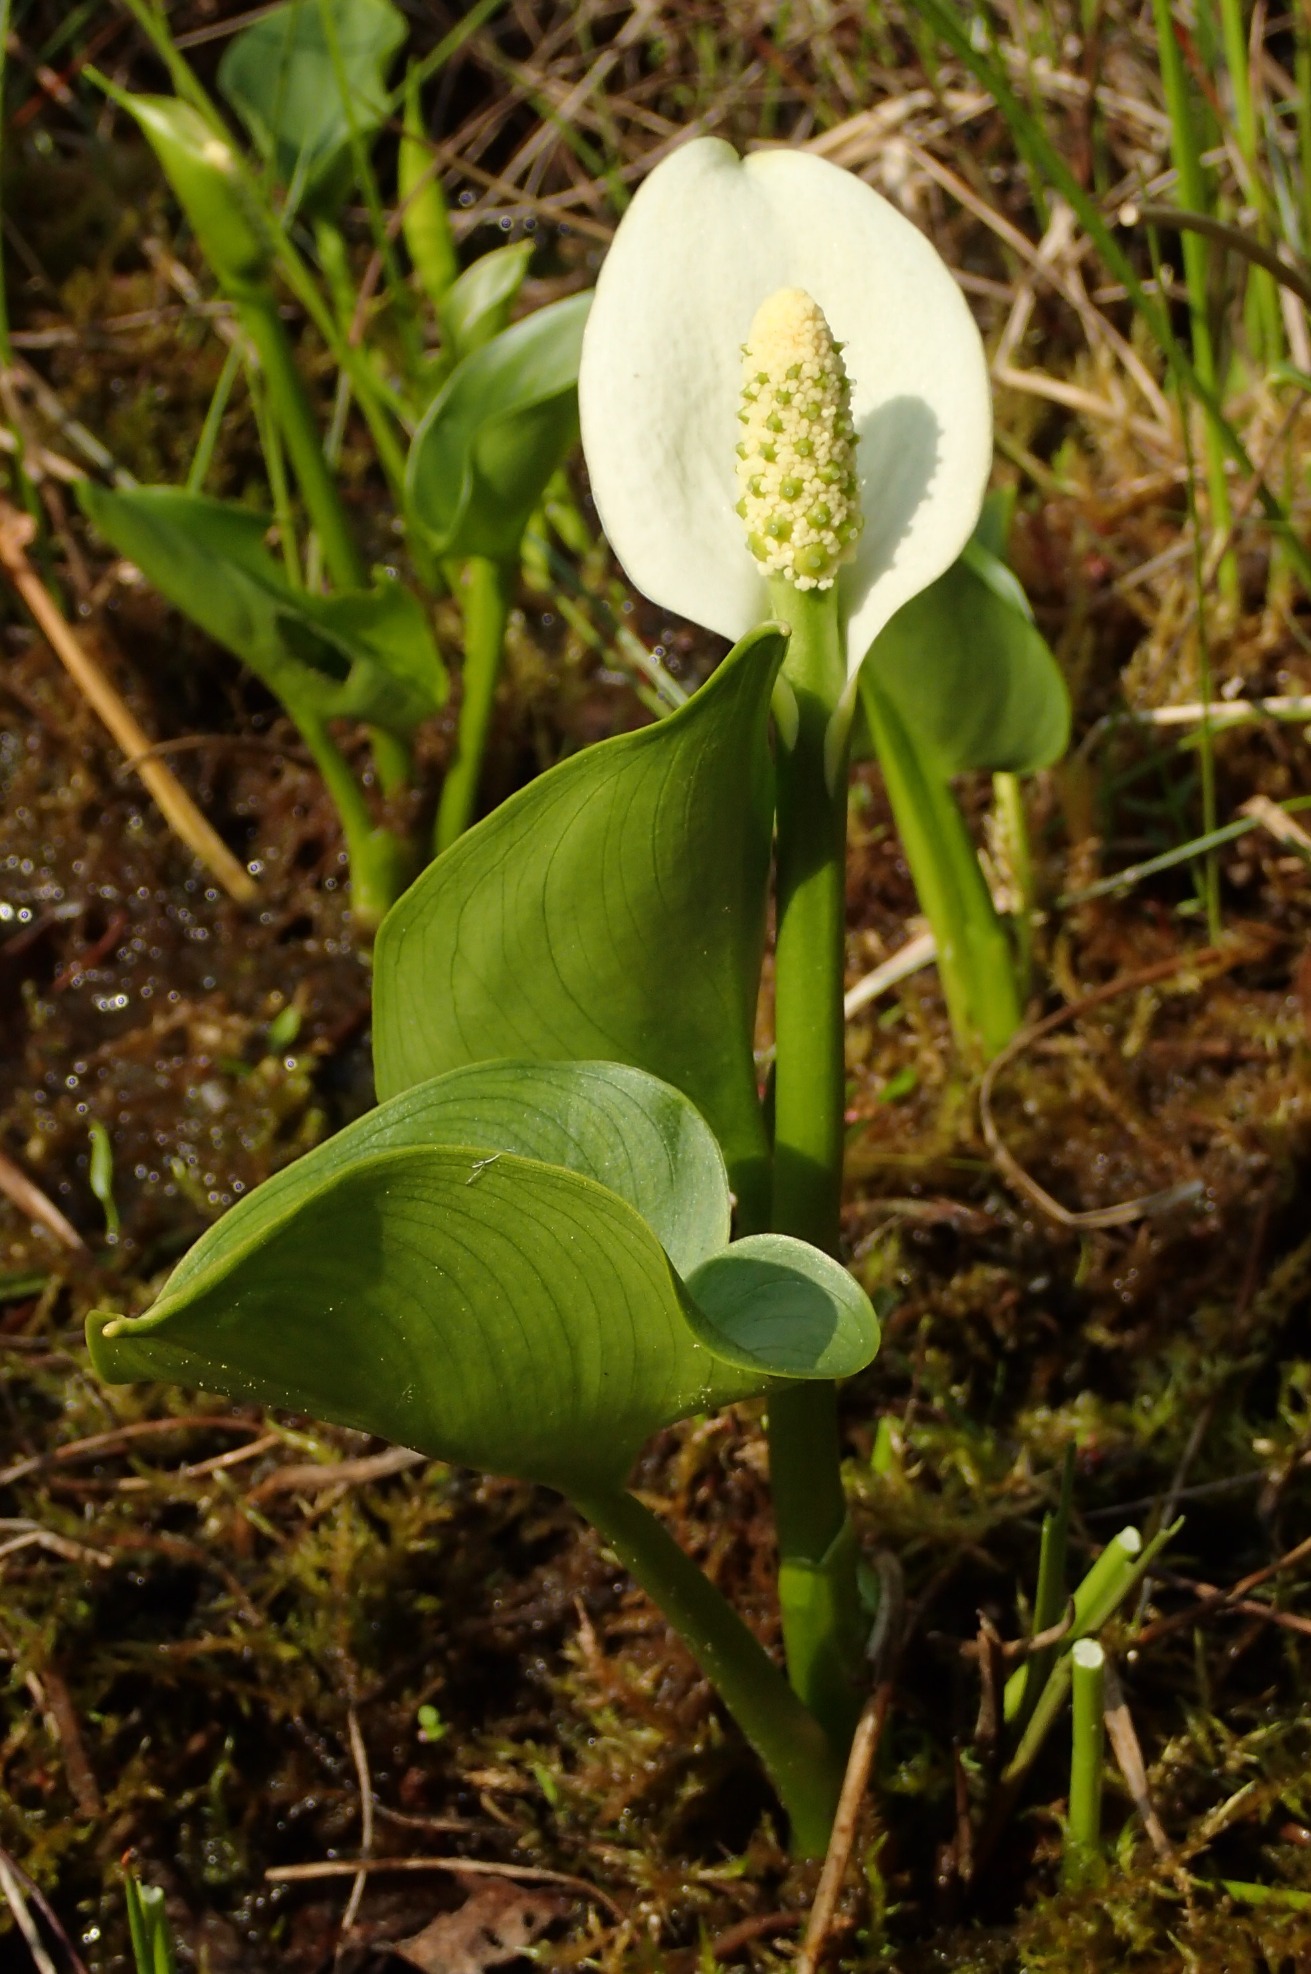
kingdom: Plantae
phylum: Tracheophyta
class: Liliopsida
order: Alismatales
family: Araceae
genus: Calla
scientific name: Calla palustris
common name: Kærmysse
